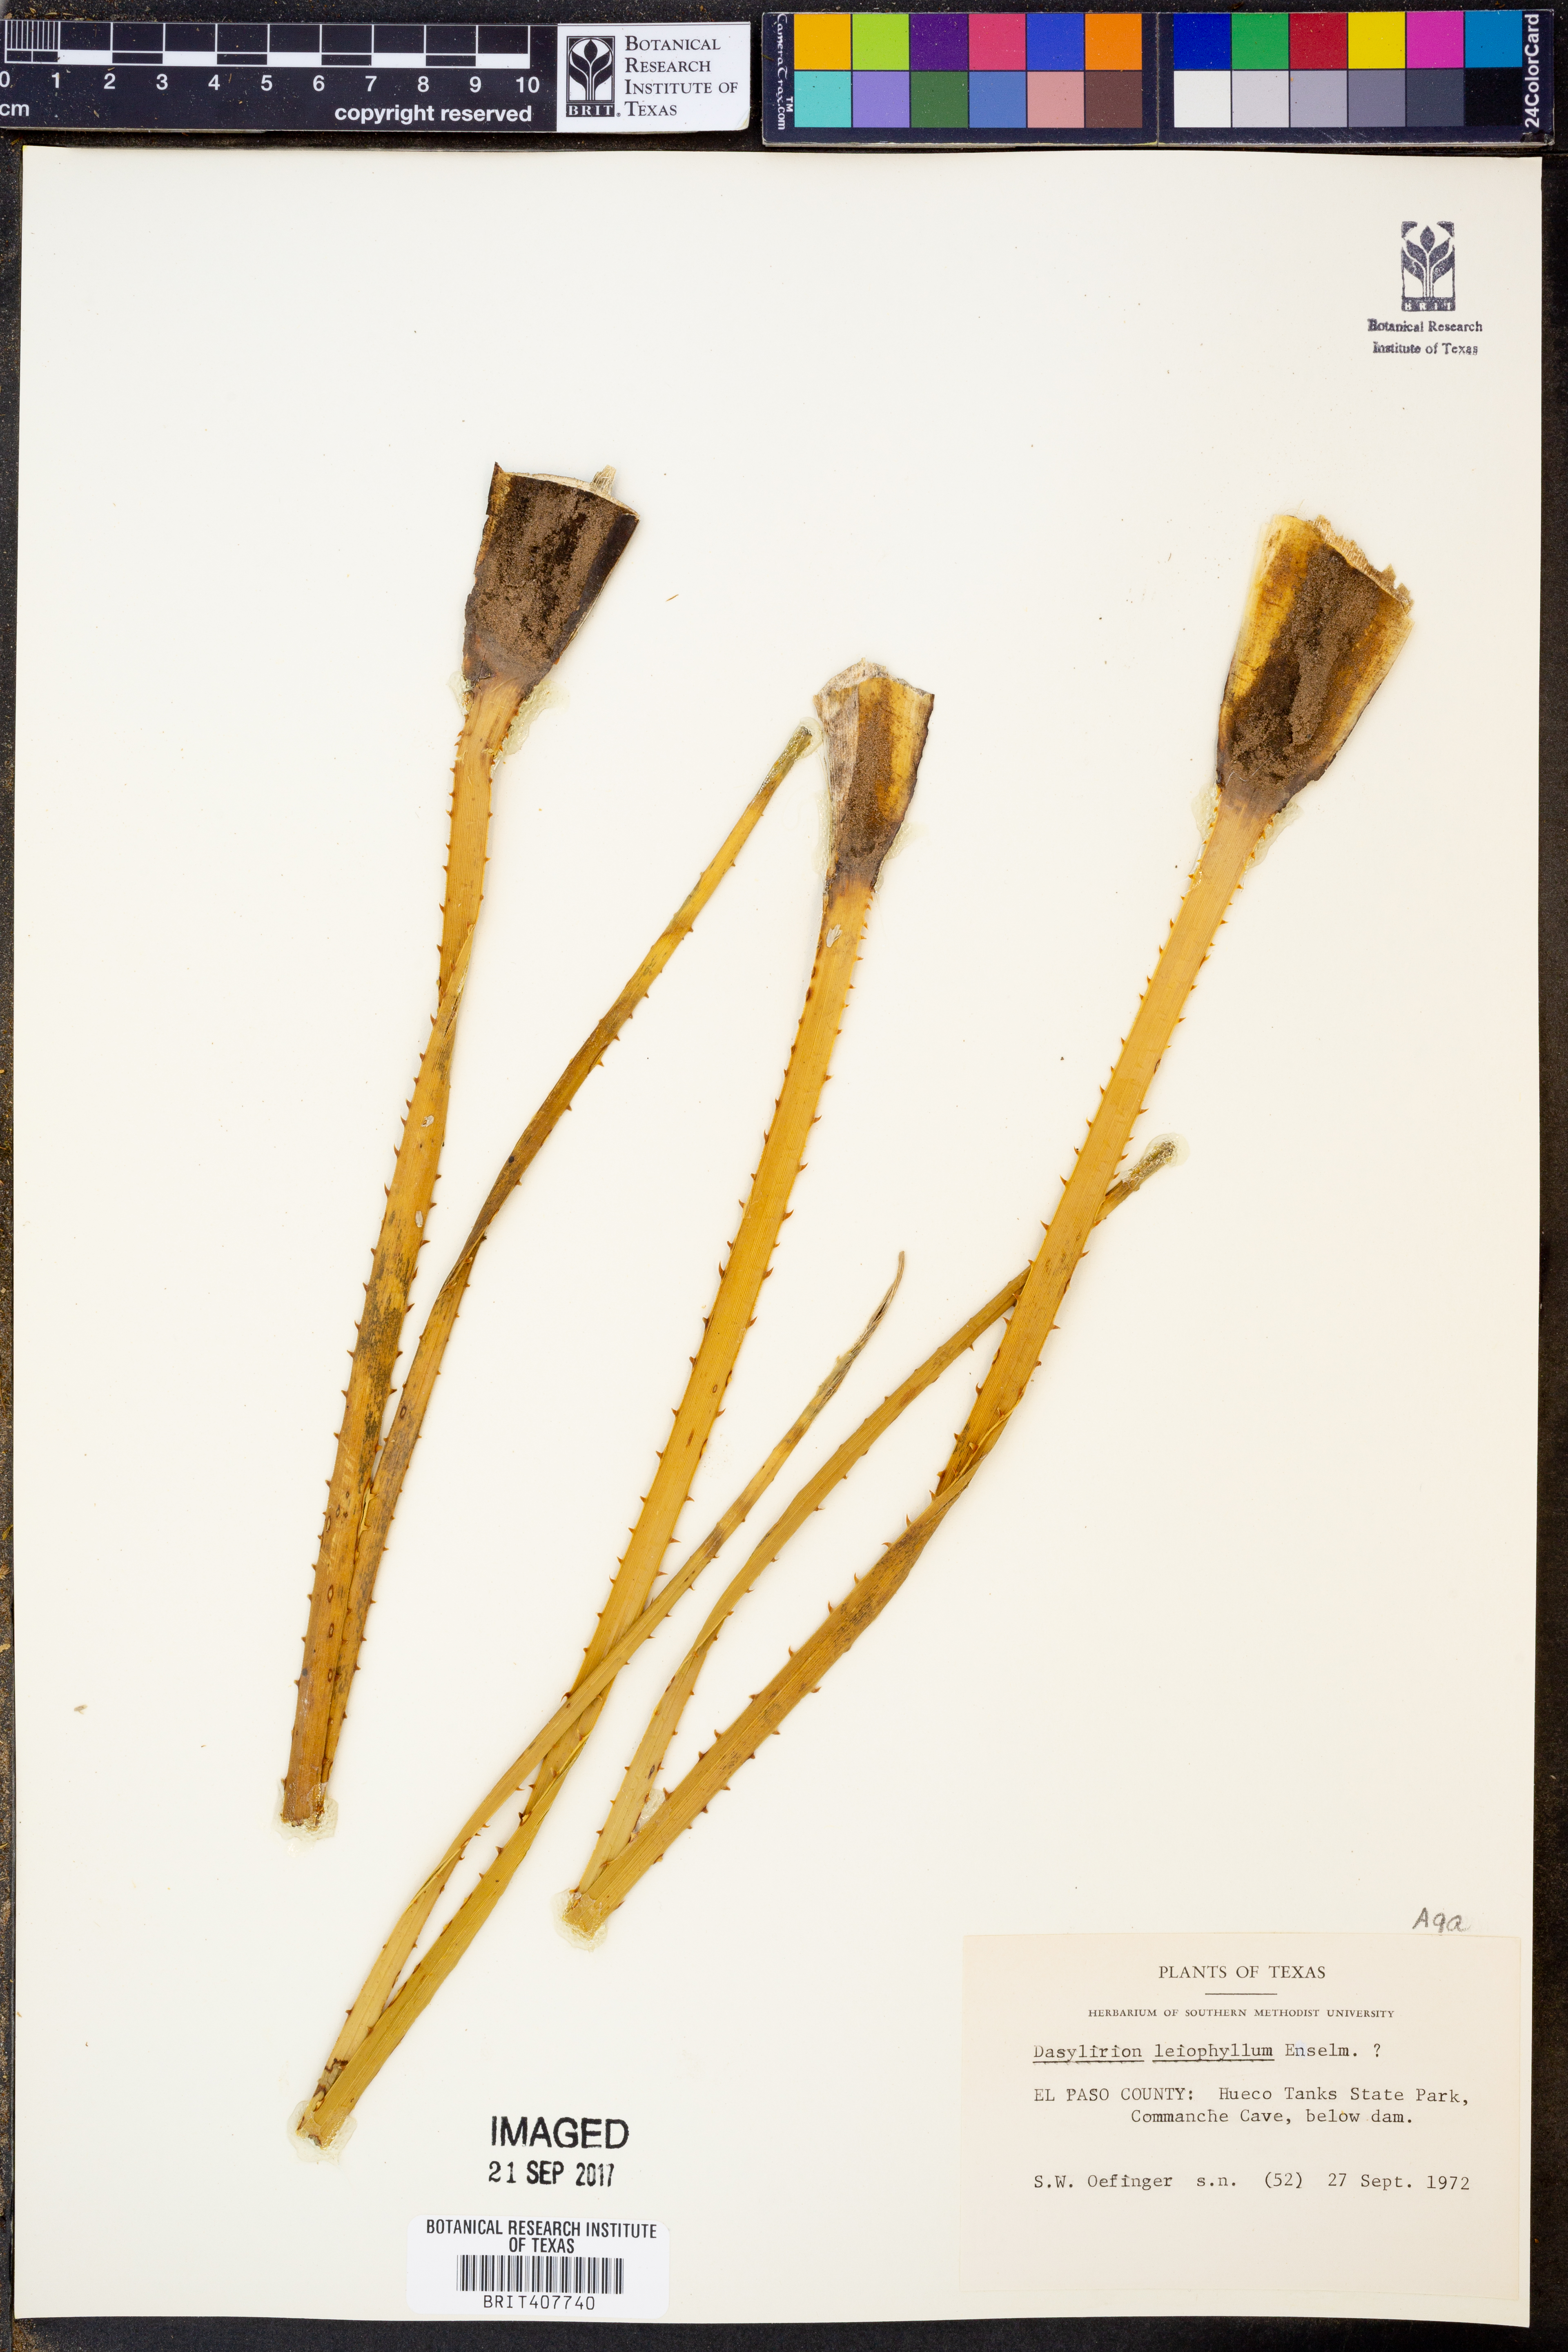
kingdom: Plantae
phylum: Tracheophyta
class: Liliopsida
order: Asparagales
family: Asparagaceae
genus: Dasylirion
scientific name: Dasylirion leiophyllum
